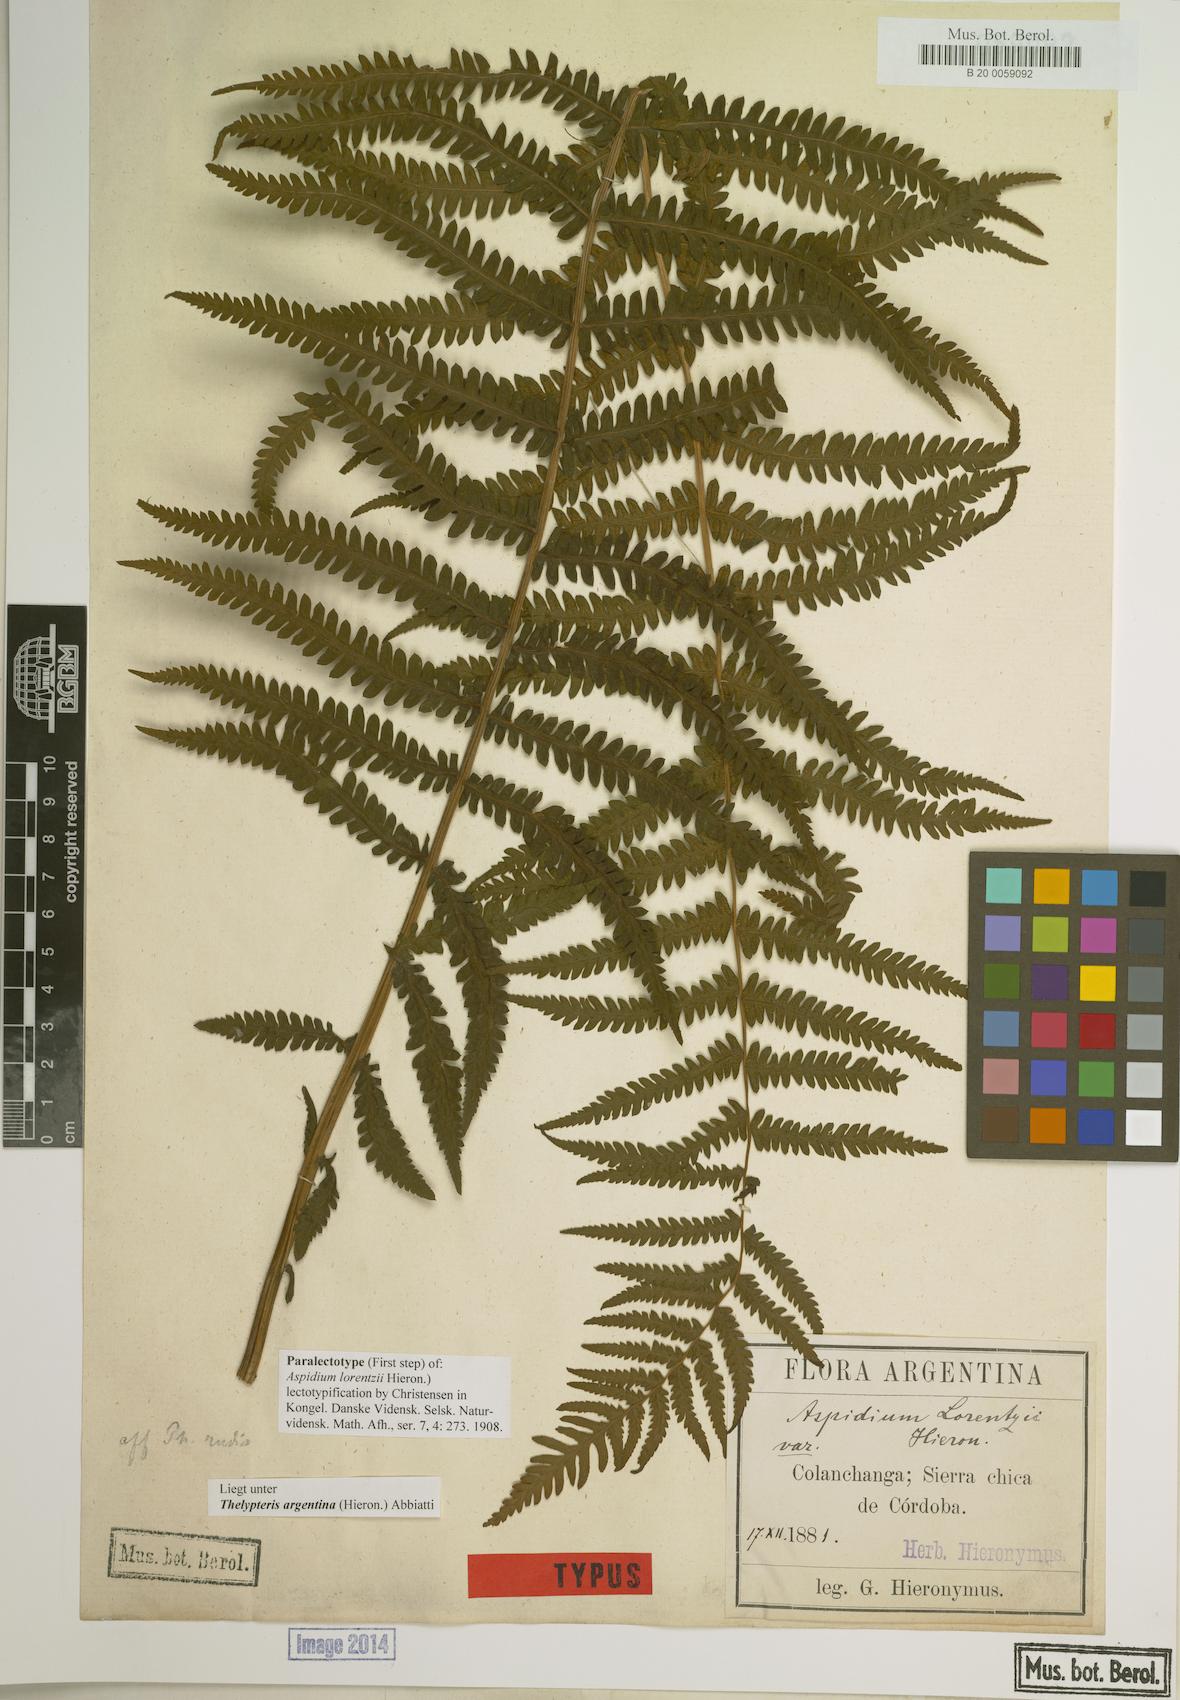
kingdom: Plantae
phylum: Tracheophyta
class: Polypodiopsida
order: Polypodiales
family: Thelypteridaceae
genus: Amauropelta
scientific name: Amauropelta argentina
